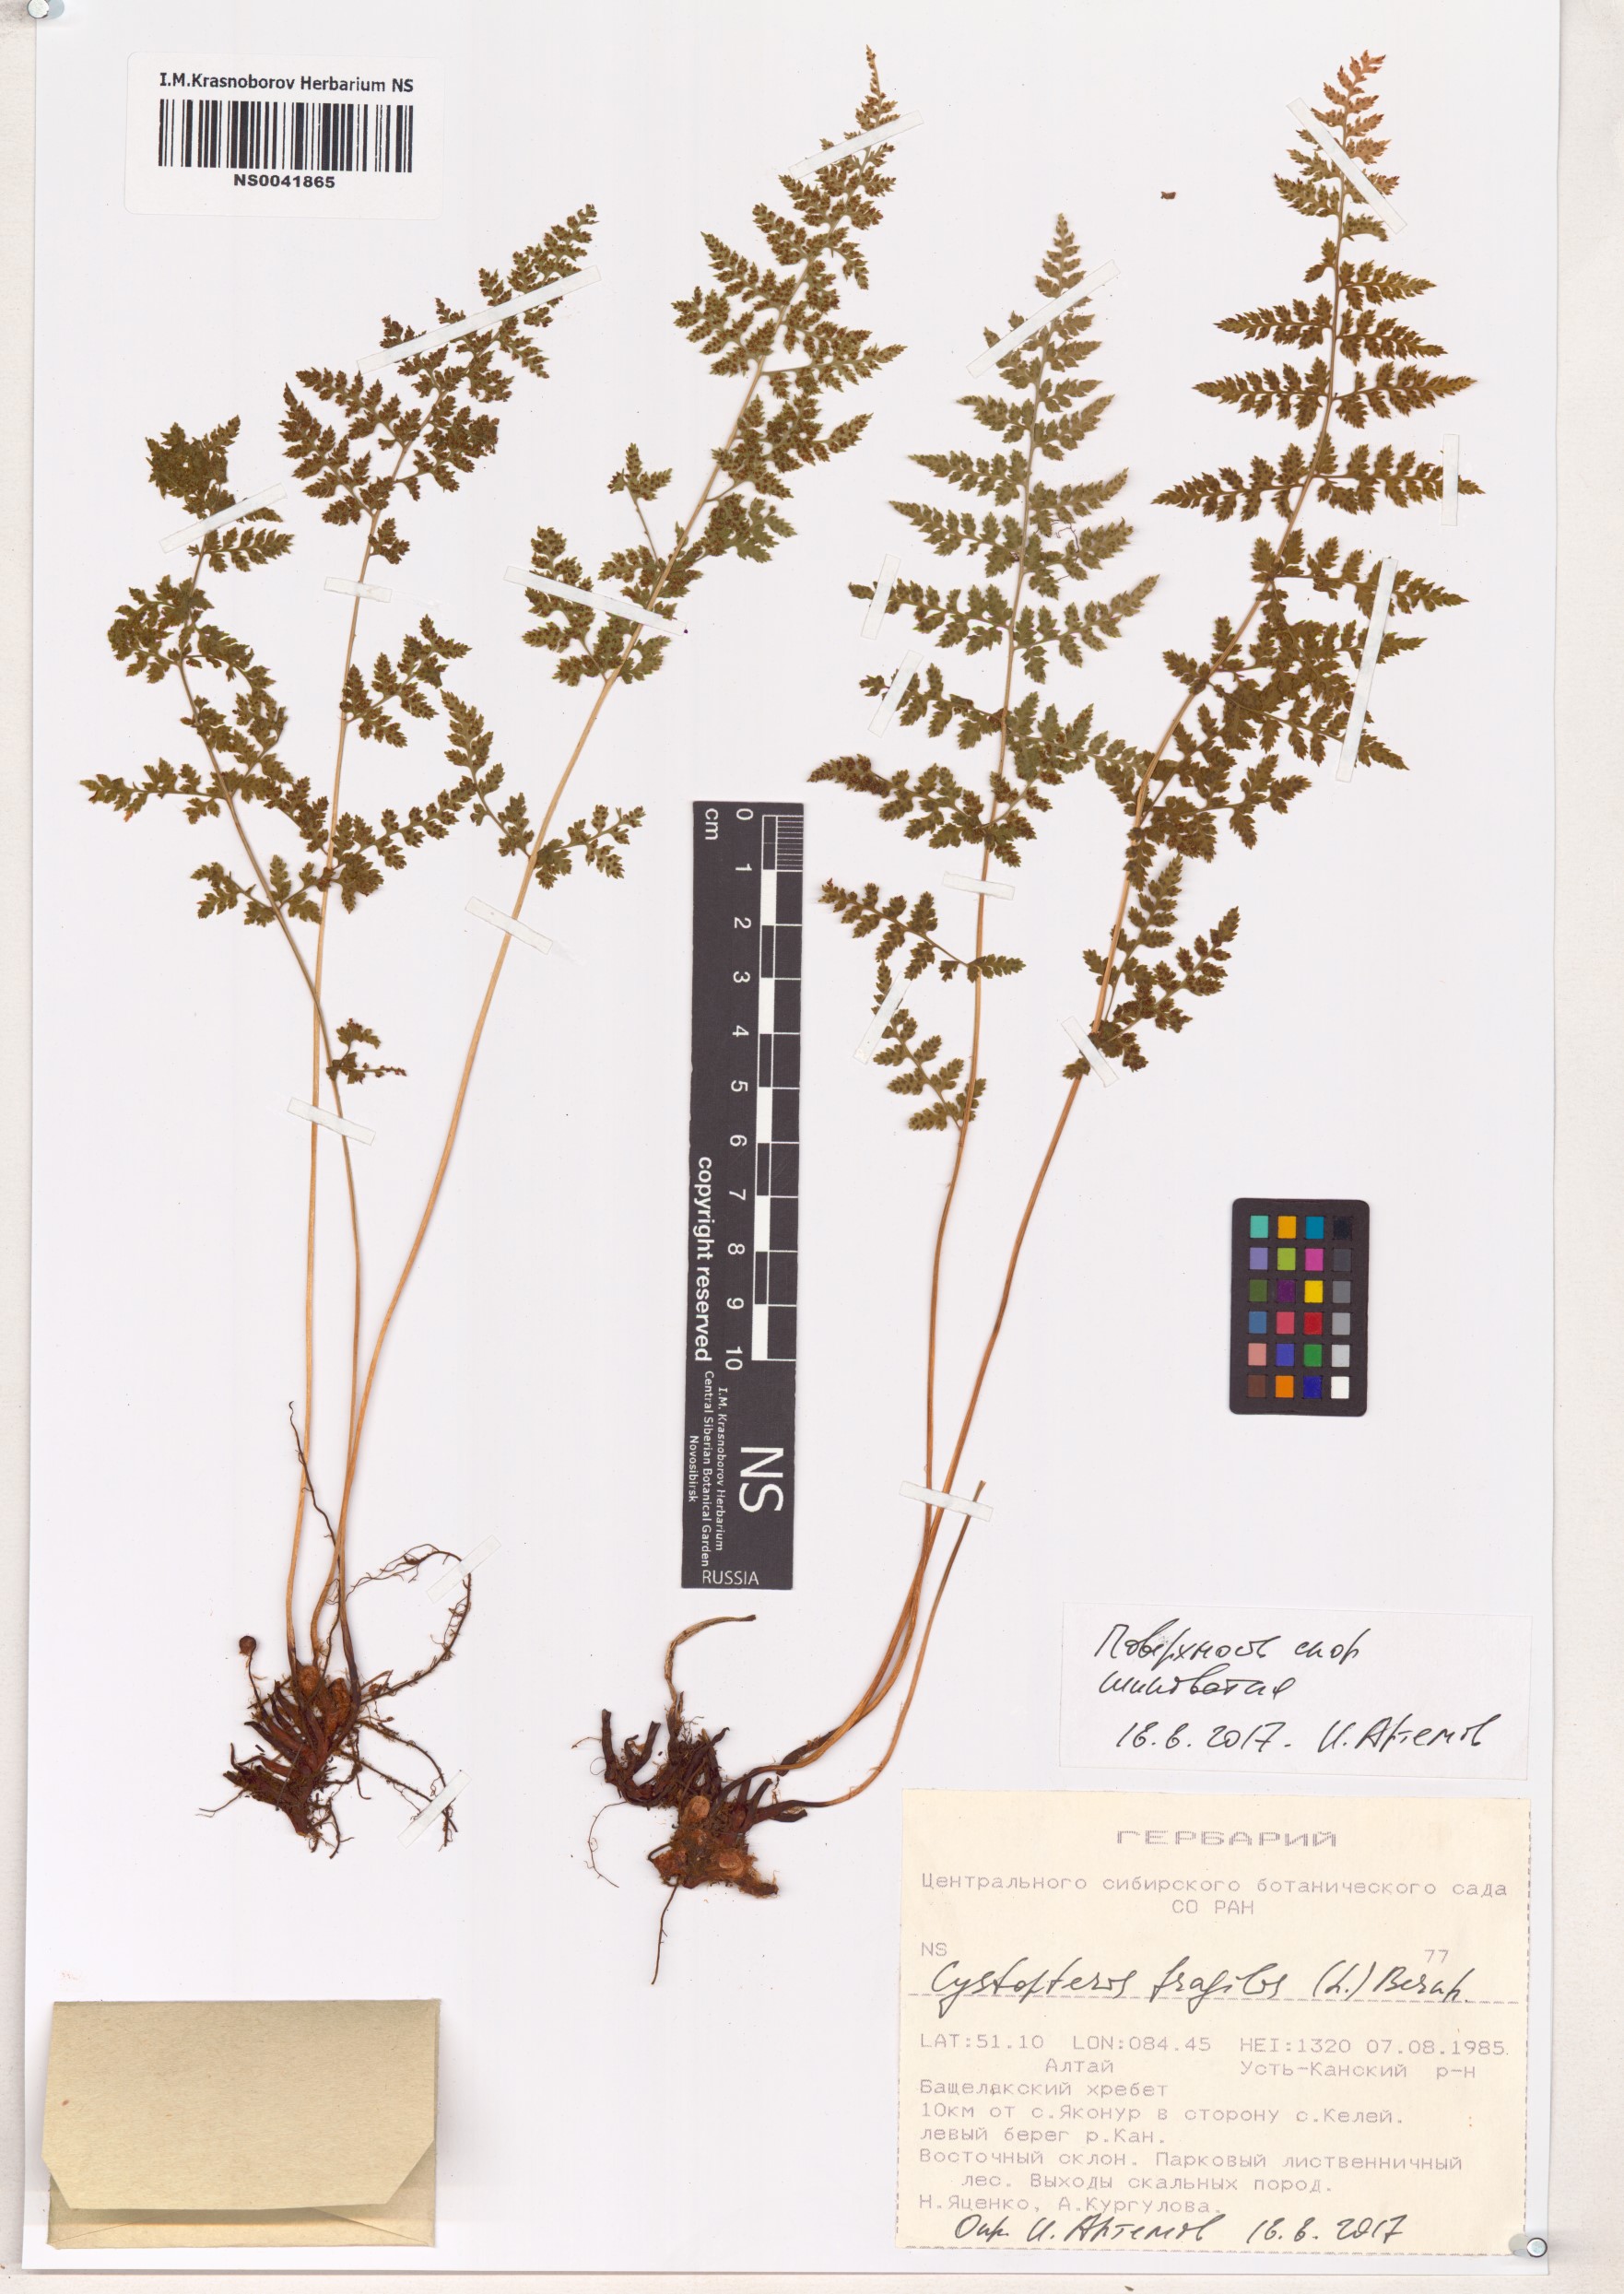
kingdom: Plantae
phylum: Tracheophyta
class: Polypodiopsida
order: Polypodiales
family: Cystopteridaceae
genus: Cystopteris
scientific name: Cystopteris fragilis
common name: Brittle bladder fern
